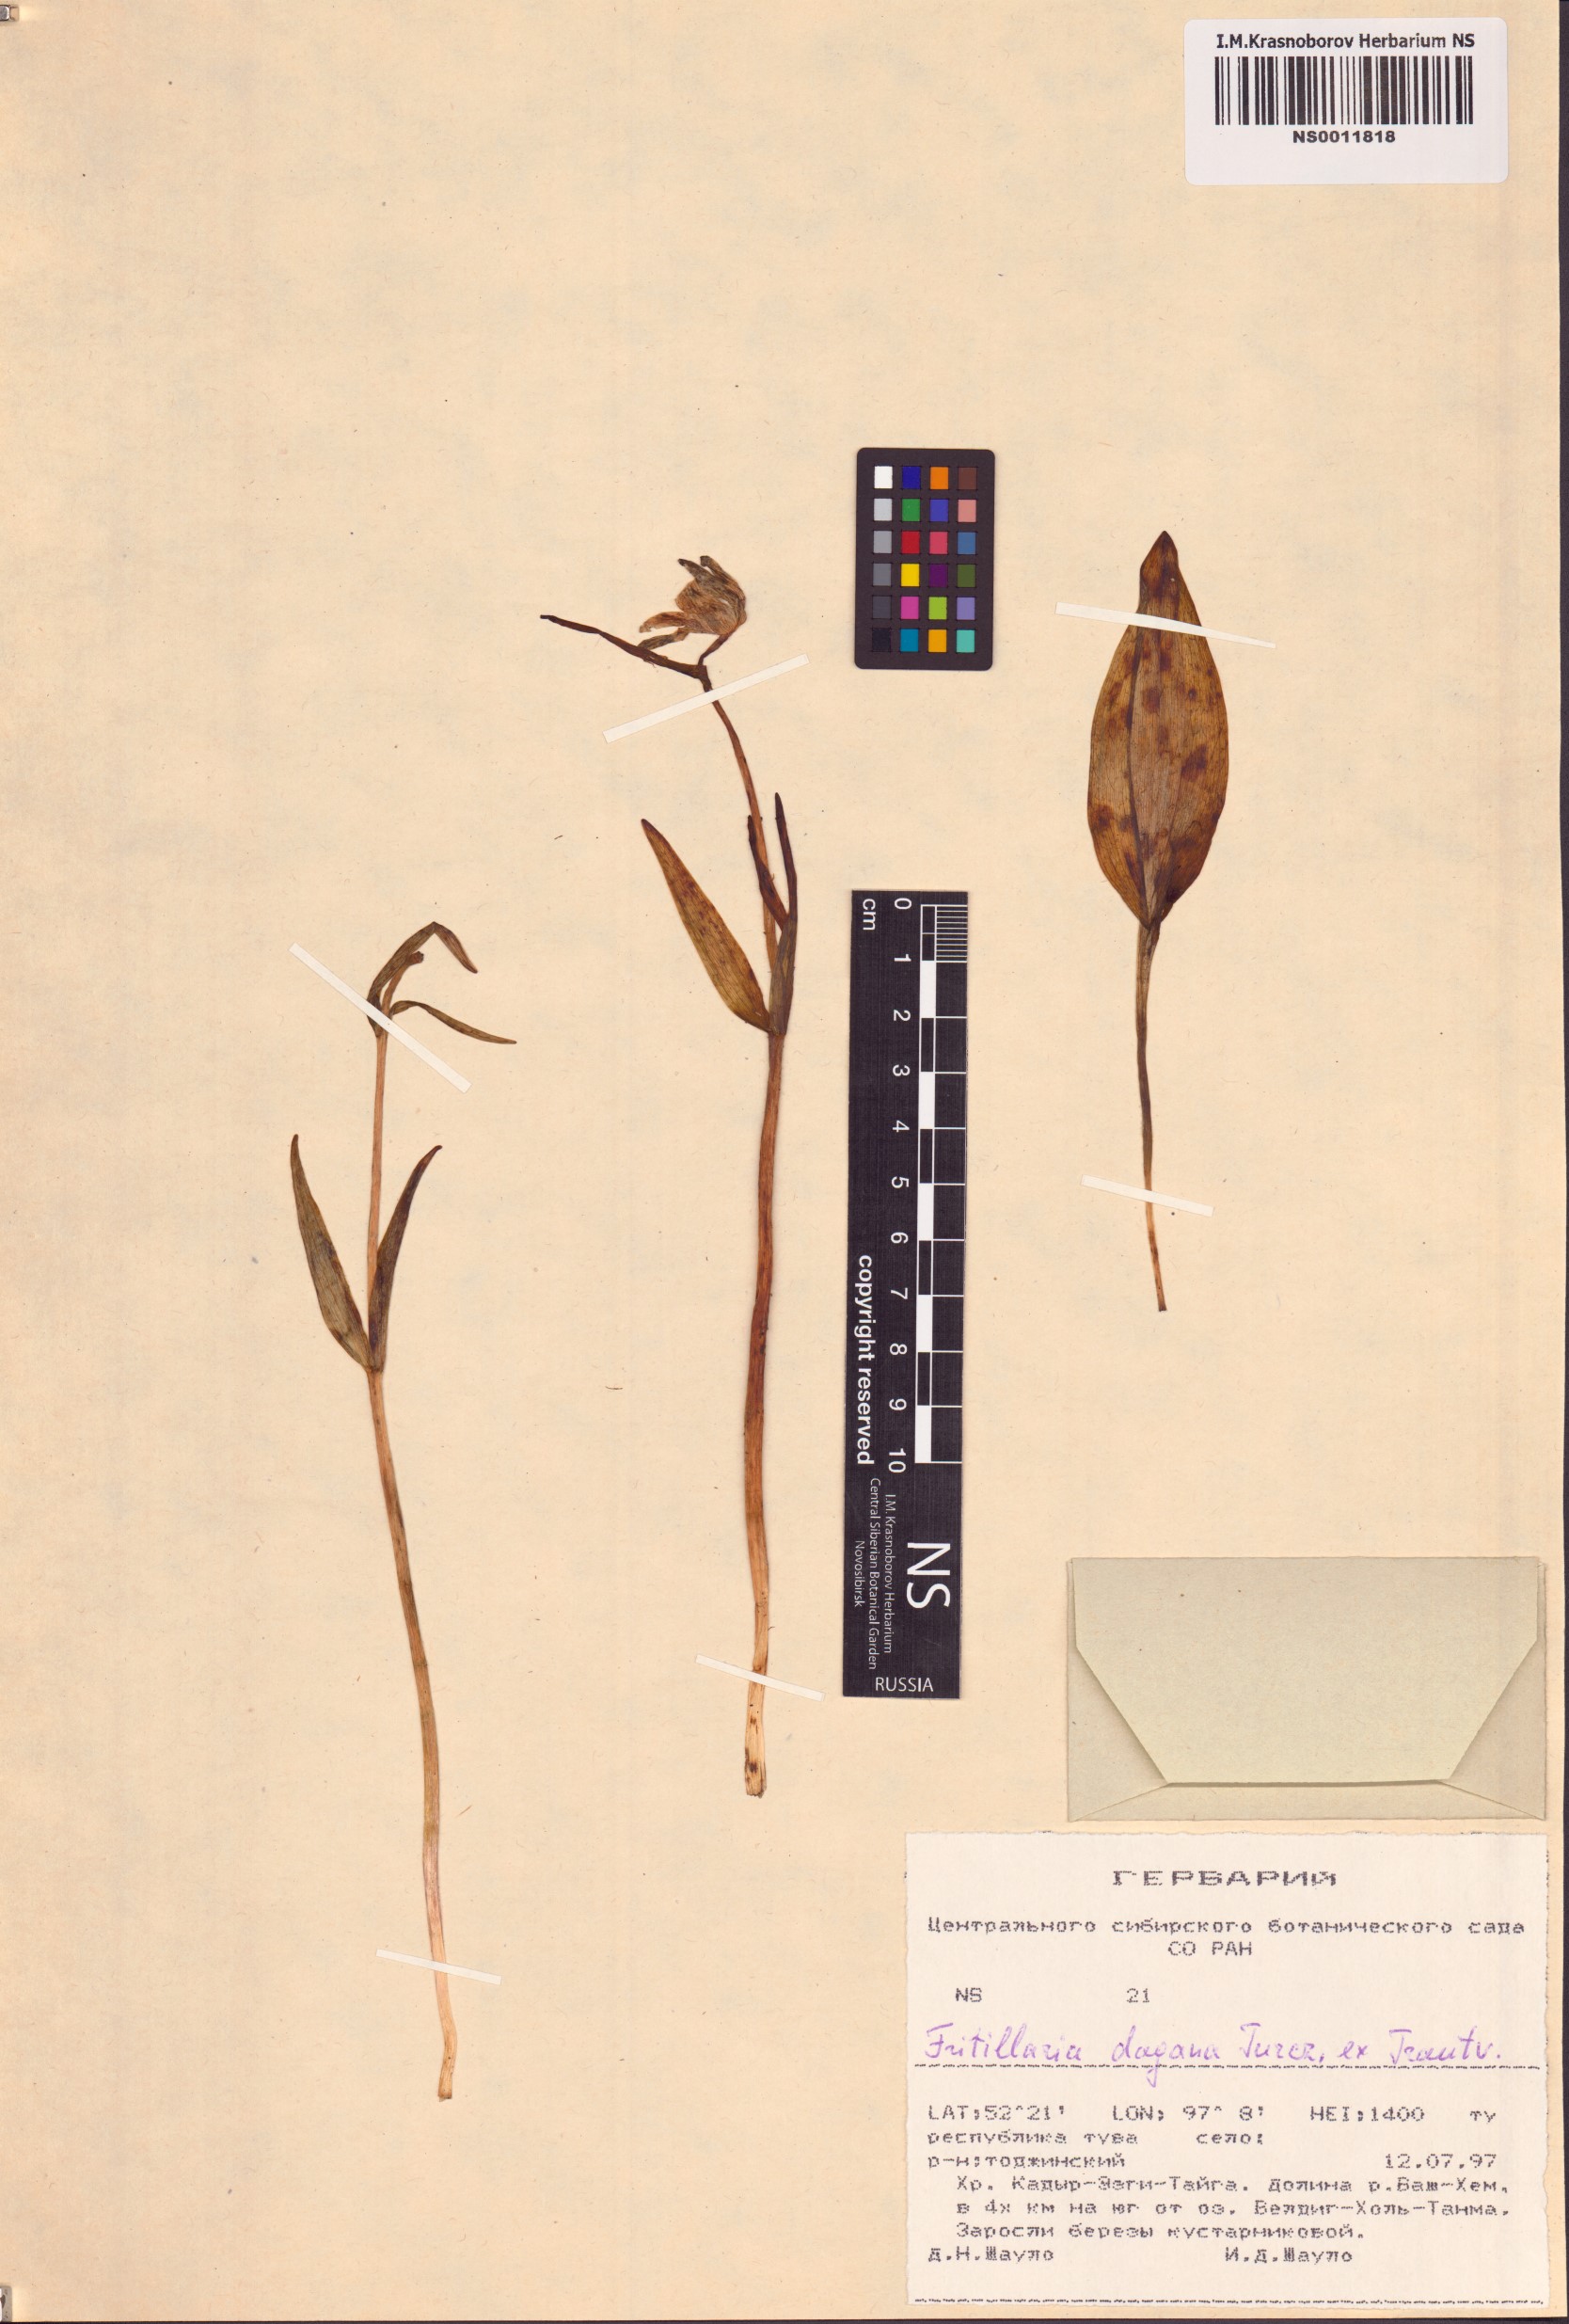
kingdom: Plantae
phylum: Tracheophyta
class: Liliopsida
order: Liliales
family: Liliaceae
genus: Fritillaria
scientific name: Fritillaria dagana
